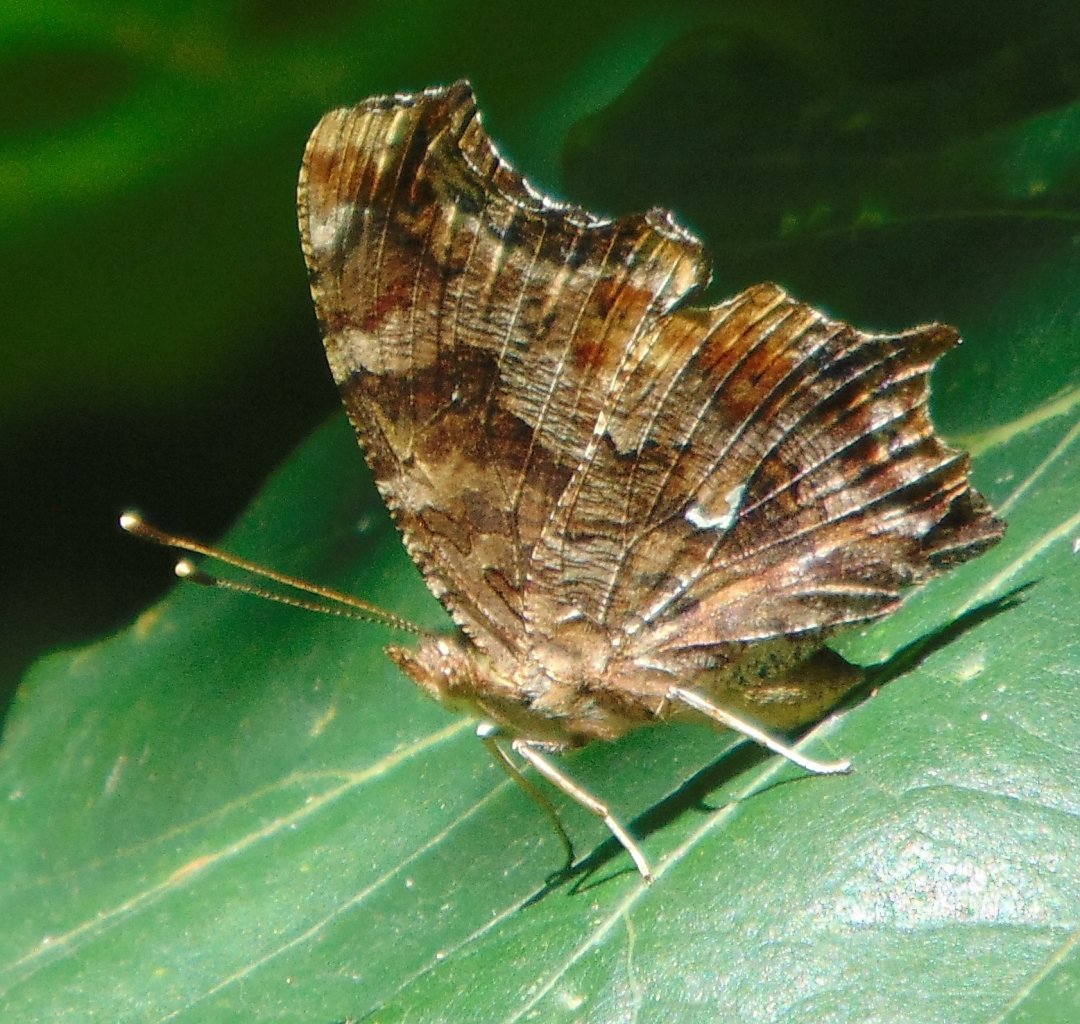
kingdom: Animalia
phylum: Arthropoda
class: Insecta
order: Lepidoptera
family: Nymphalidae
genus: Polygonia
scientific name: Polygonia comma
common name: Eastern Comma
